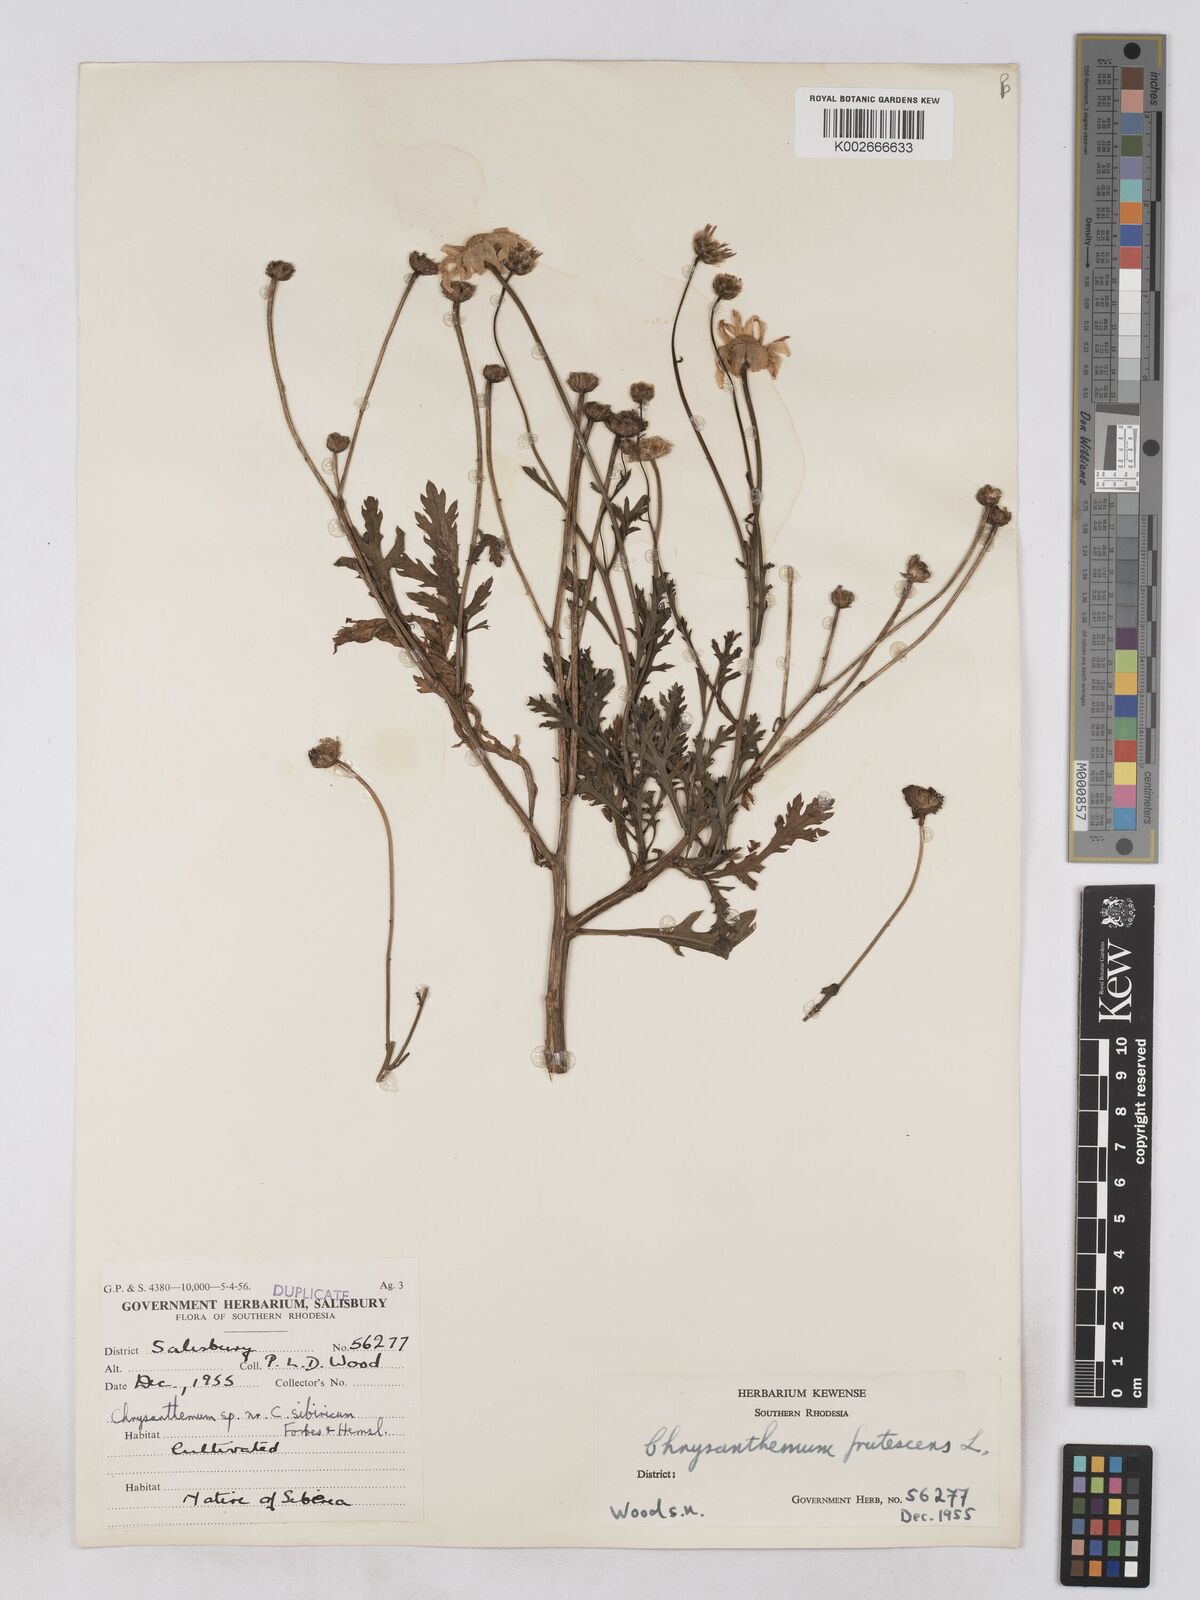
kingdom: Plantae
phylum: Tracheophyta
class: Magnoliopsida
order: Asterales
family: Asteraceae
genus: Argyranthemum
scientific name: Argyranthemum
